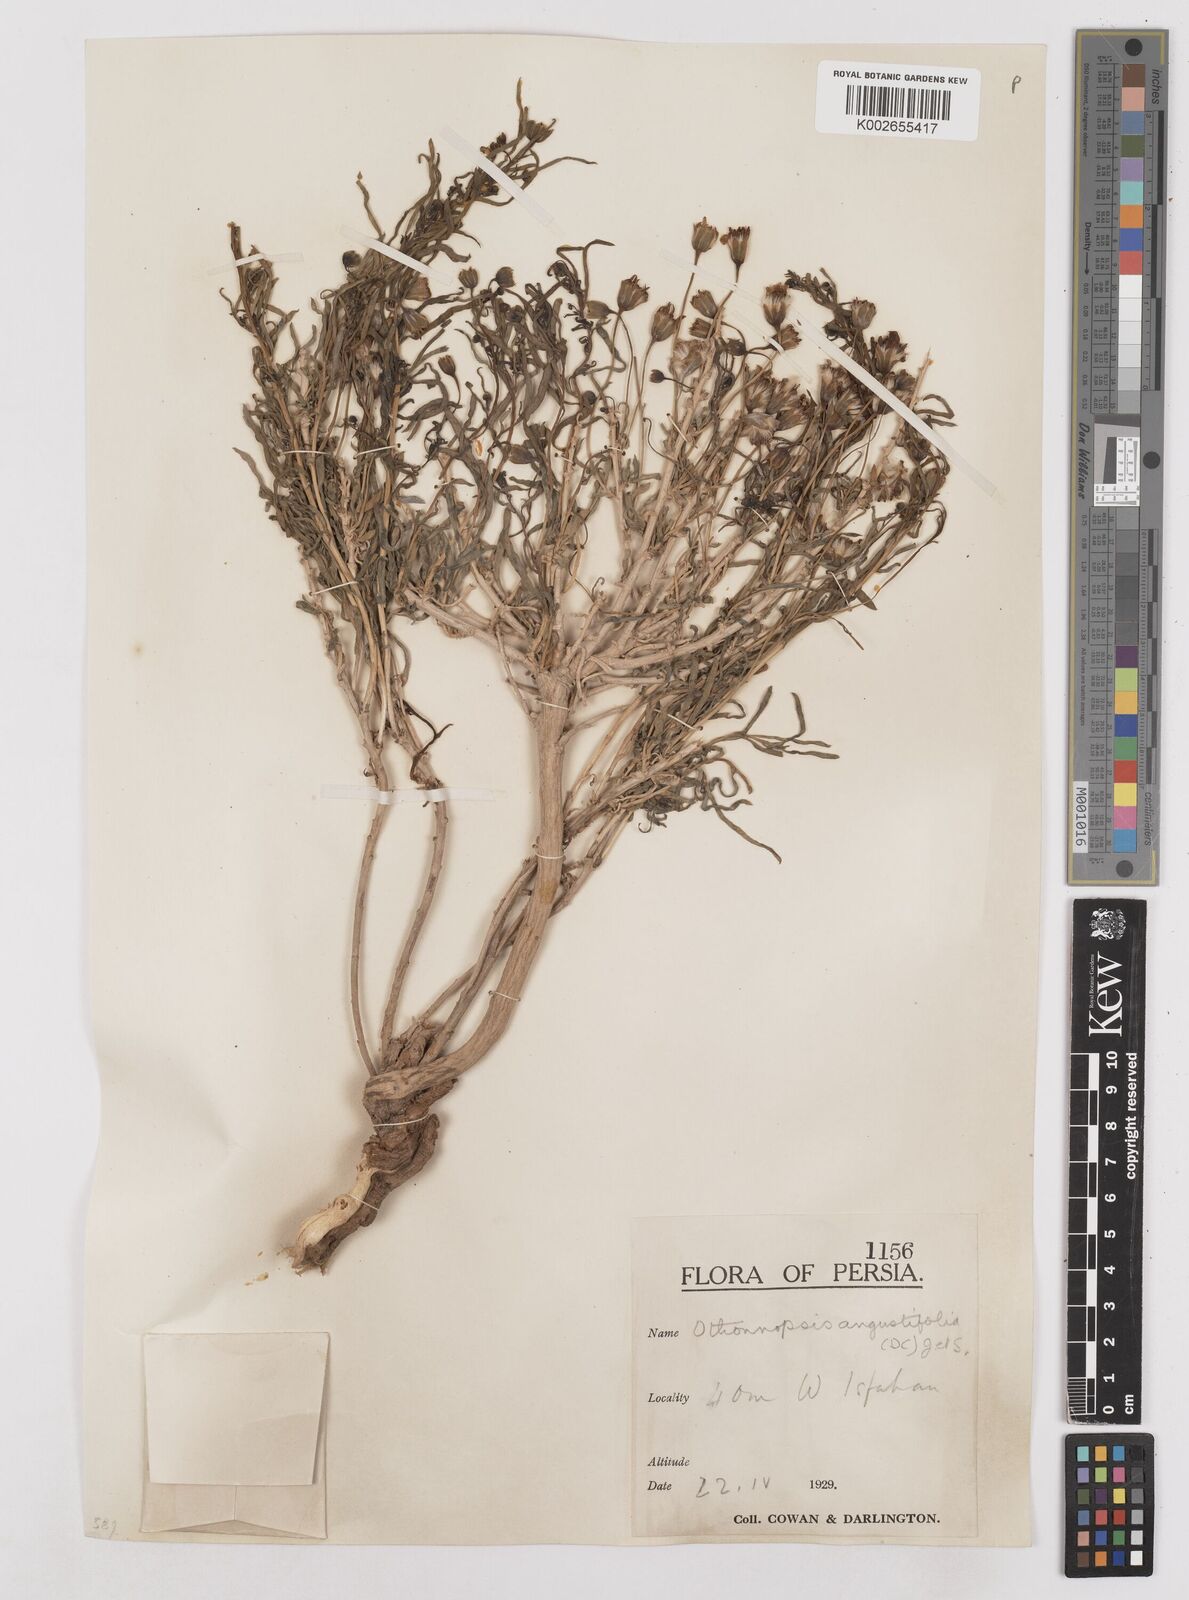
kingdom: Plantae
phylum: Tracheophyta
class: Magnoliopsida
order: Asterales
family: Asteraceae
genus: Hertia
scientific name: Hertia angustifolia
